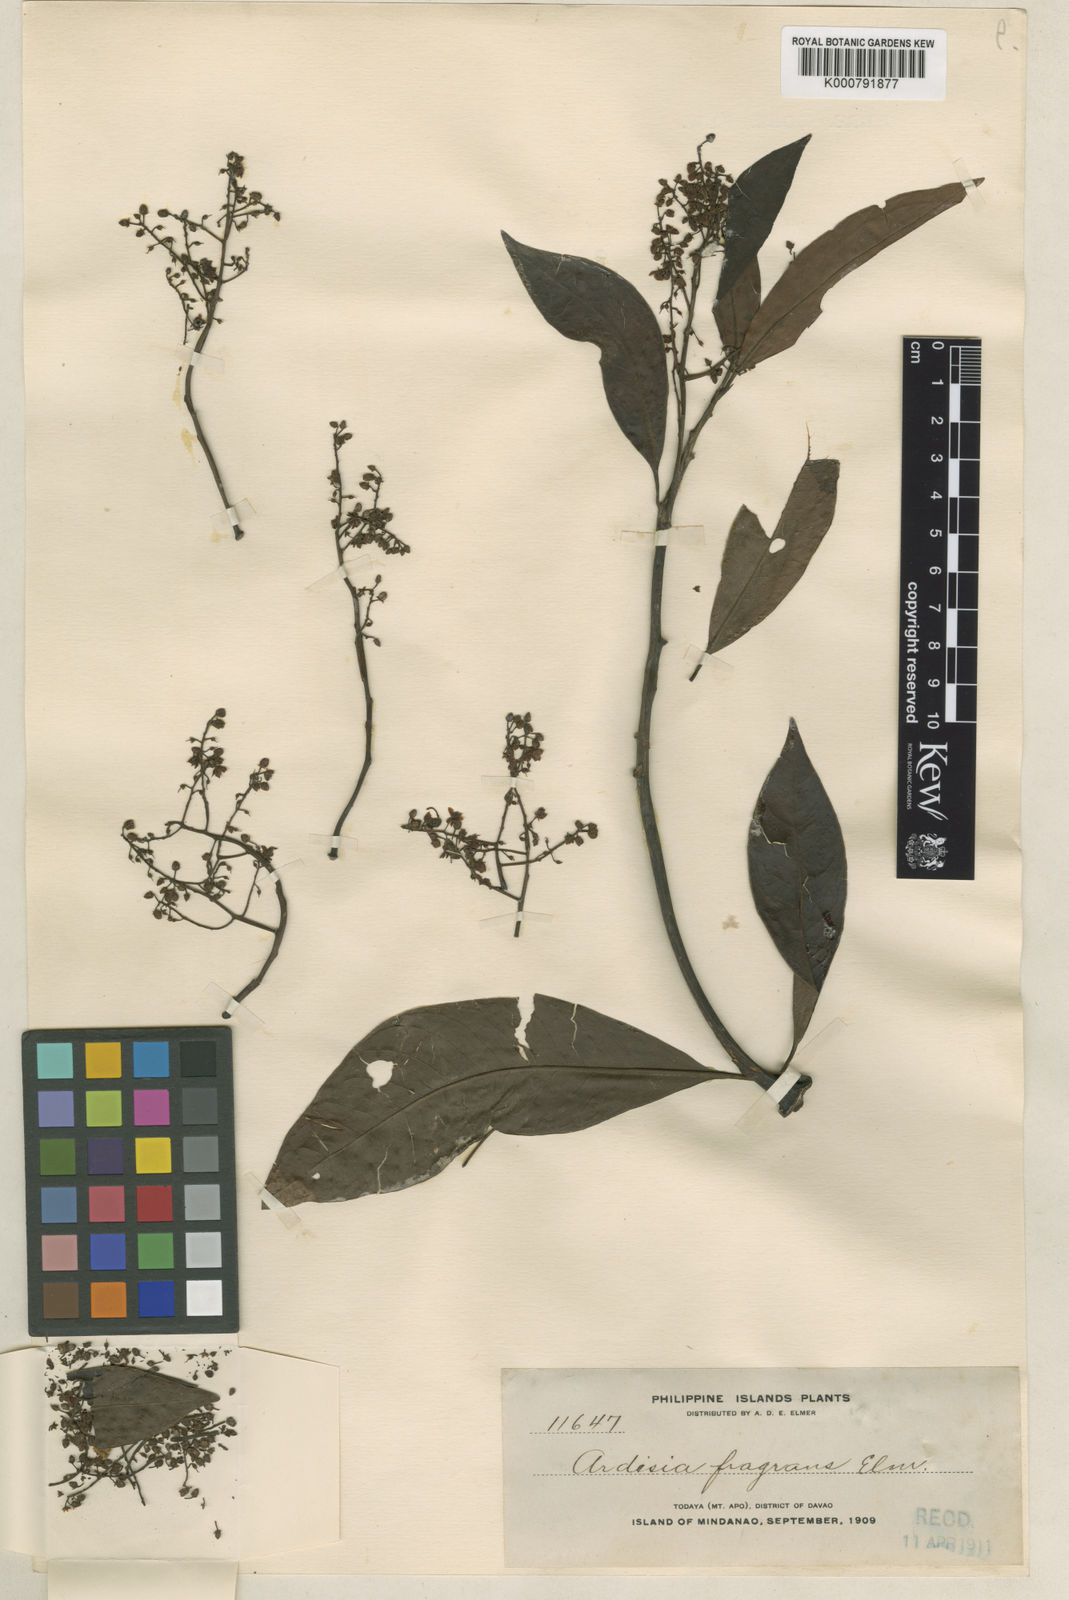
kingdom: Plantae
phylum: Tracheophyta
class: Magnoliopsida
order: Ericales
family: Primulaceae
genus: Ardisia
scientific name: Ardisia elmeri
